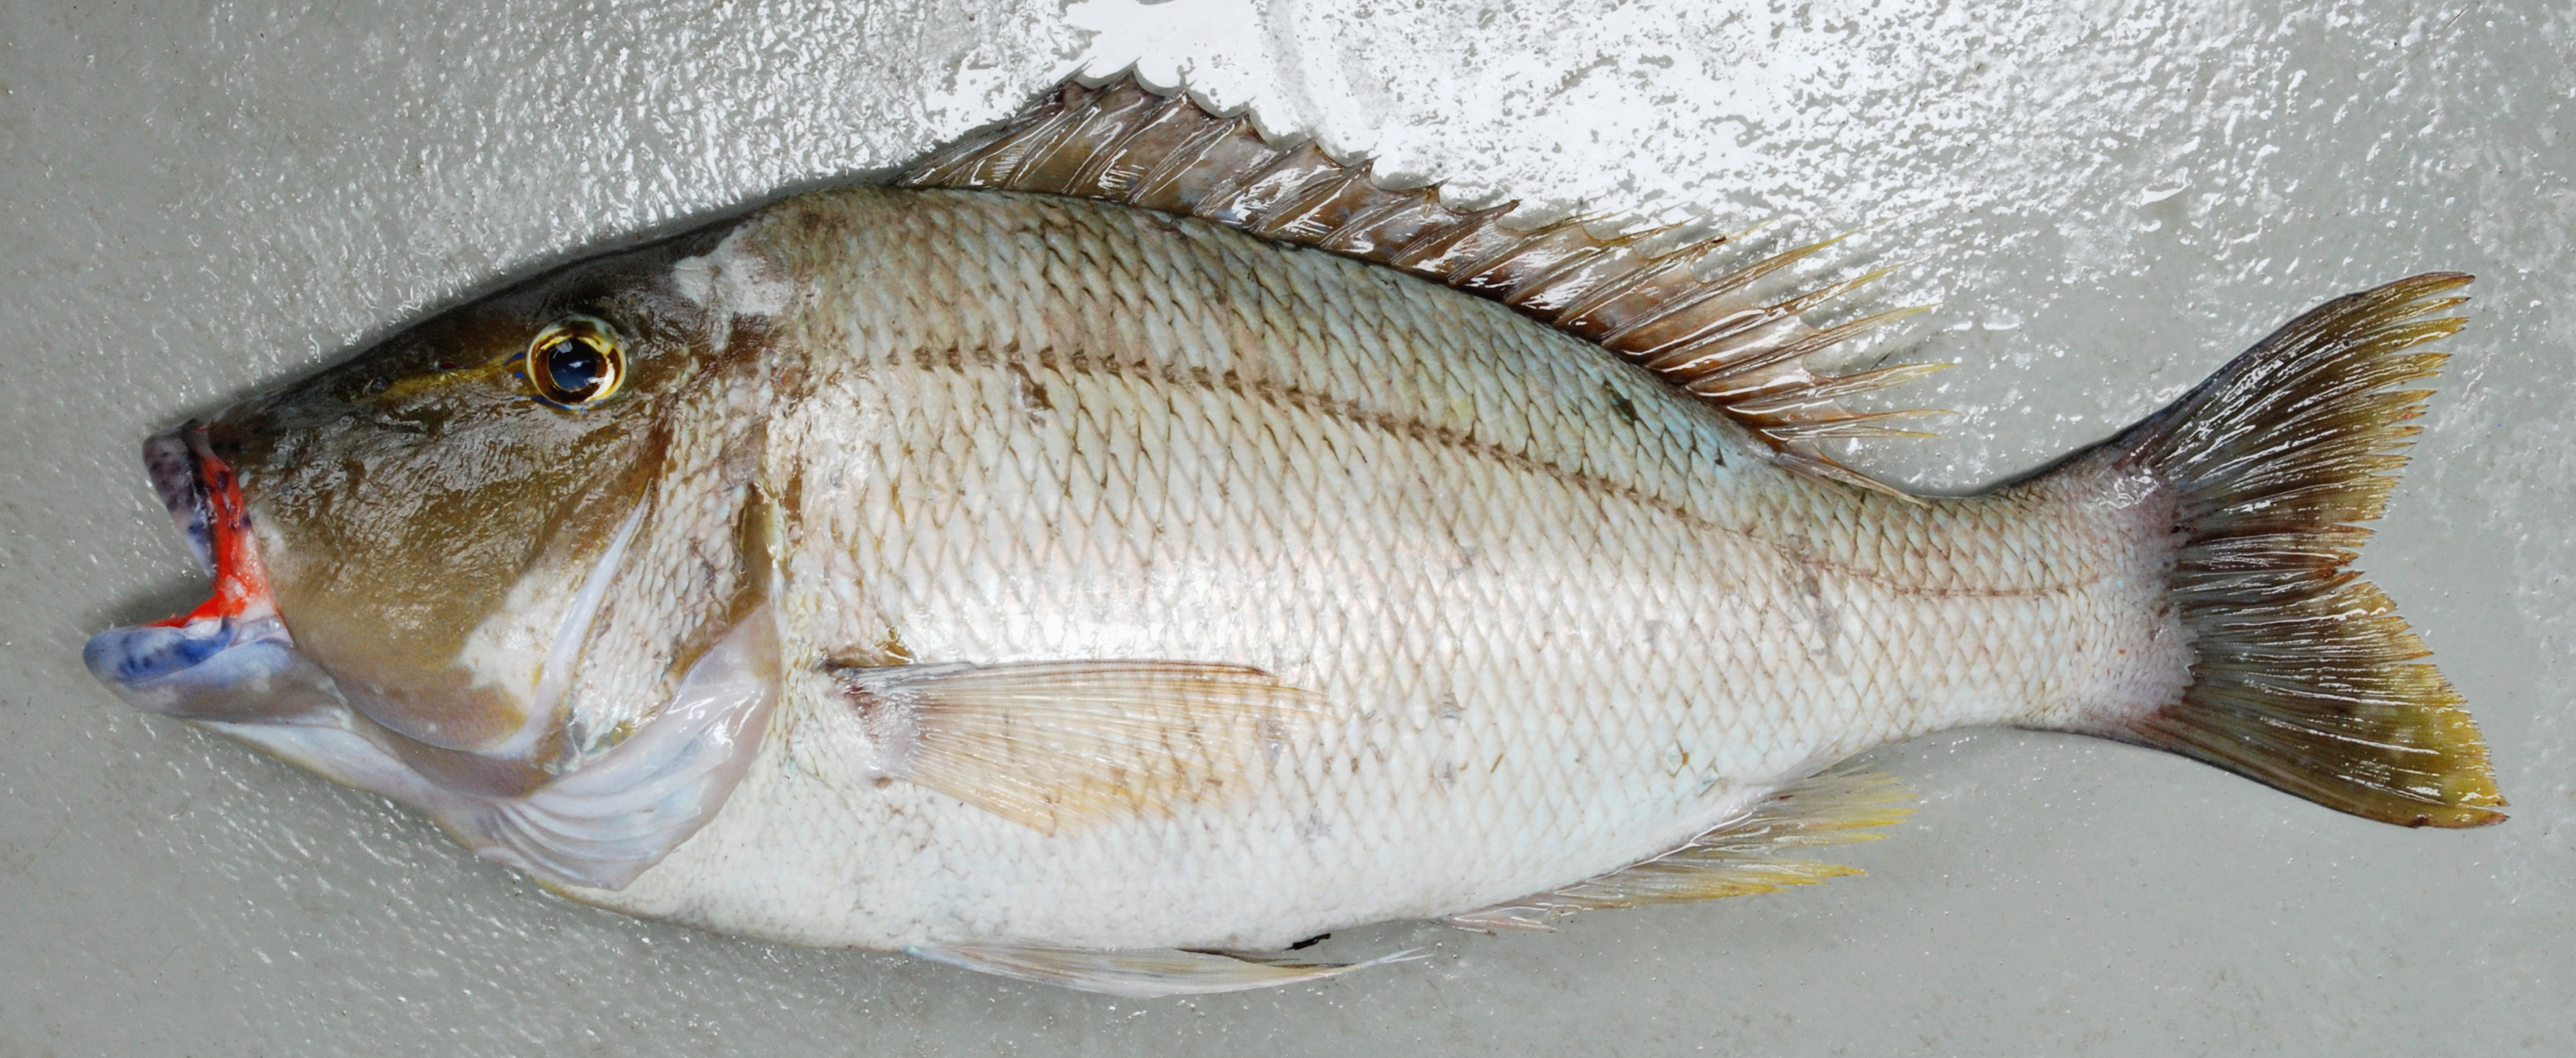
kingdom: Animalia
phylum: Chordata
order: Perciformes
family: Lethrinidae
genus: Lethrinus
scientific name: Lethrinus enigmaticus
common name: Blackeye emperor
